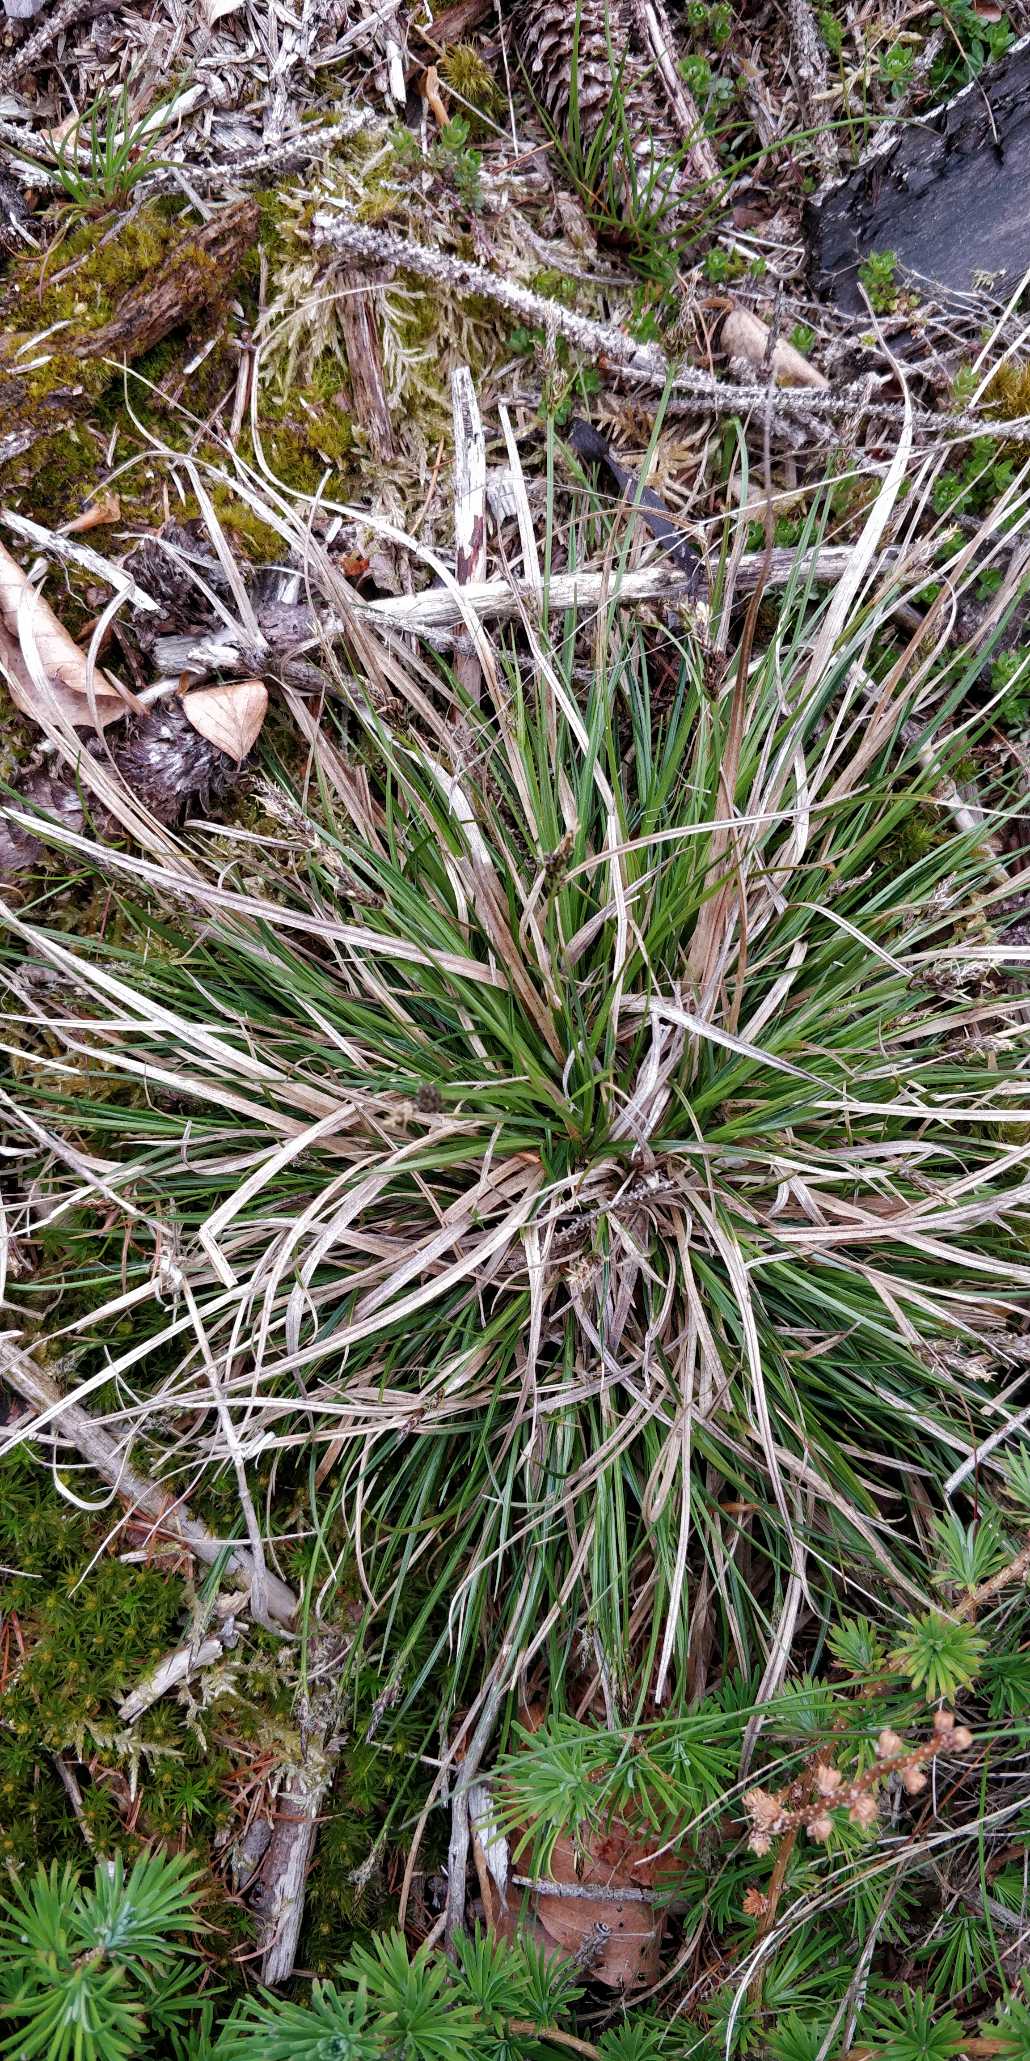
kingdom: Plantae
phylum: Tracheophyta
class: Liliopsida
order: Poales
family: Cyperaceae
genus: Carex
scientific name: Carex caryophyllea
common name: Vår-star
